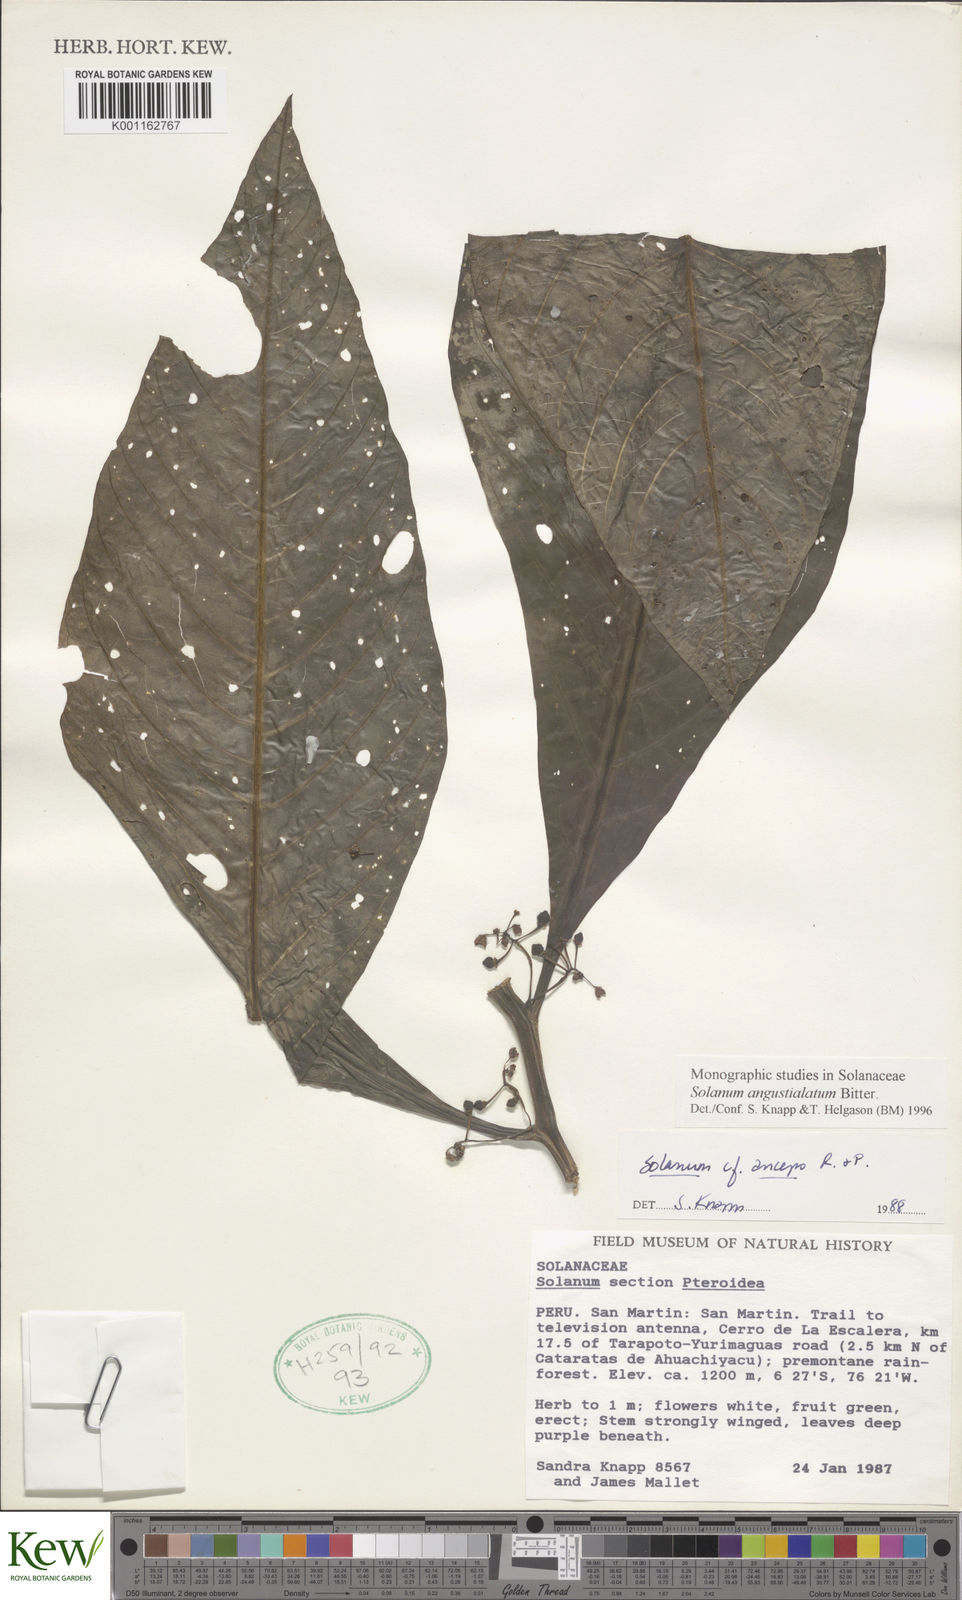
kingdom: Plantae
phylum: Tracheophyta
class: Magnoliopsida
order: Solanales
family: Solanaceae
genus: Solanum
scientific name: Solanum angustialatum
